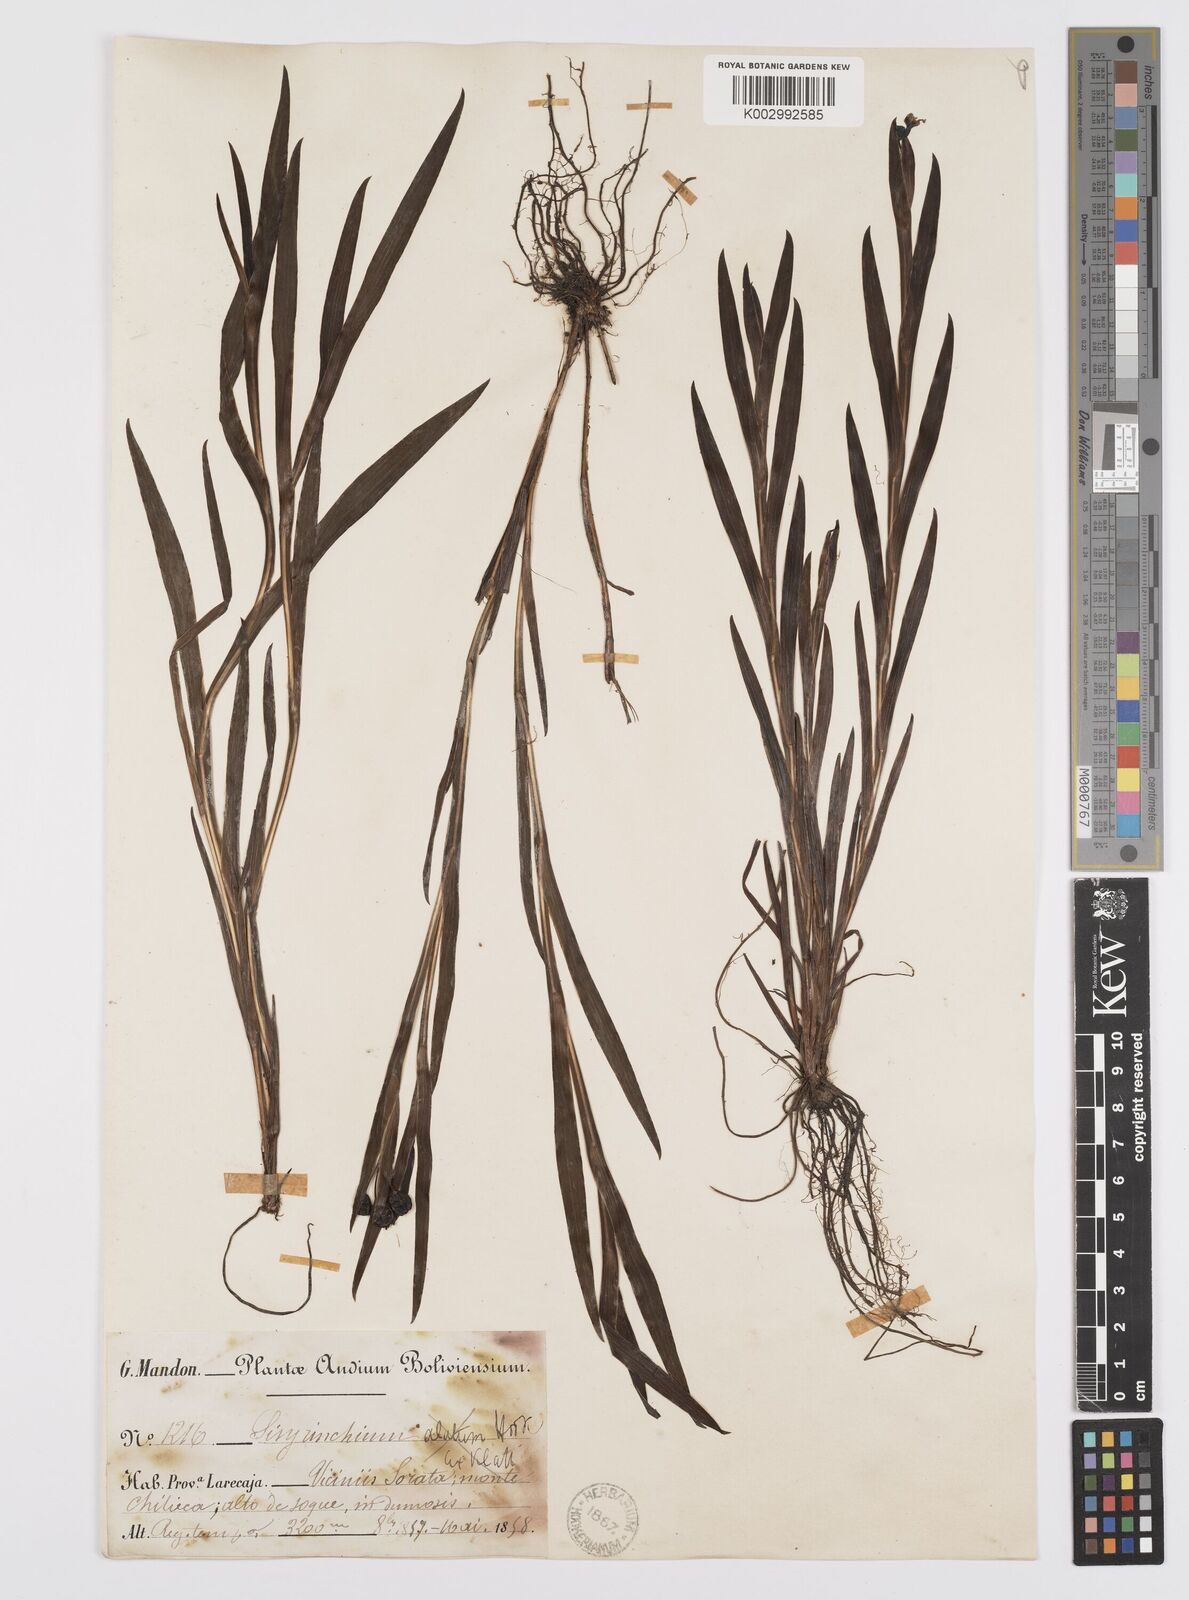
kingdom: Plantae
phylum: Tracheophyta
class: Liliopsida
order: Asparagales
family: Iridaceae
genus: Sisyrinchium
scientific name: Sisyrinchium vaginatum
